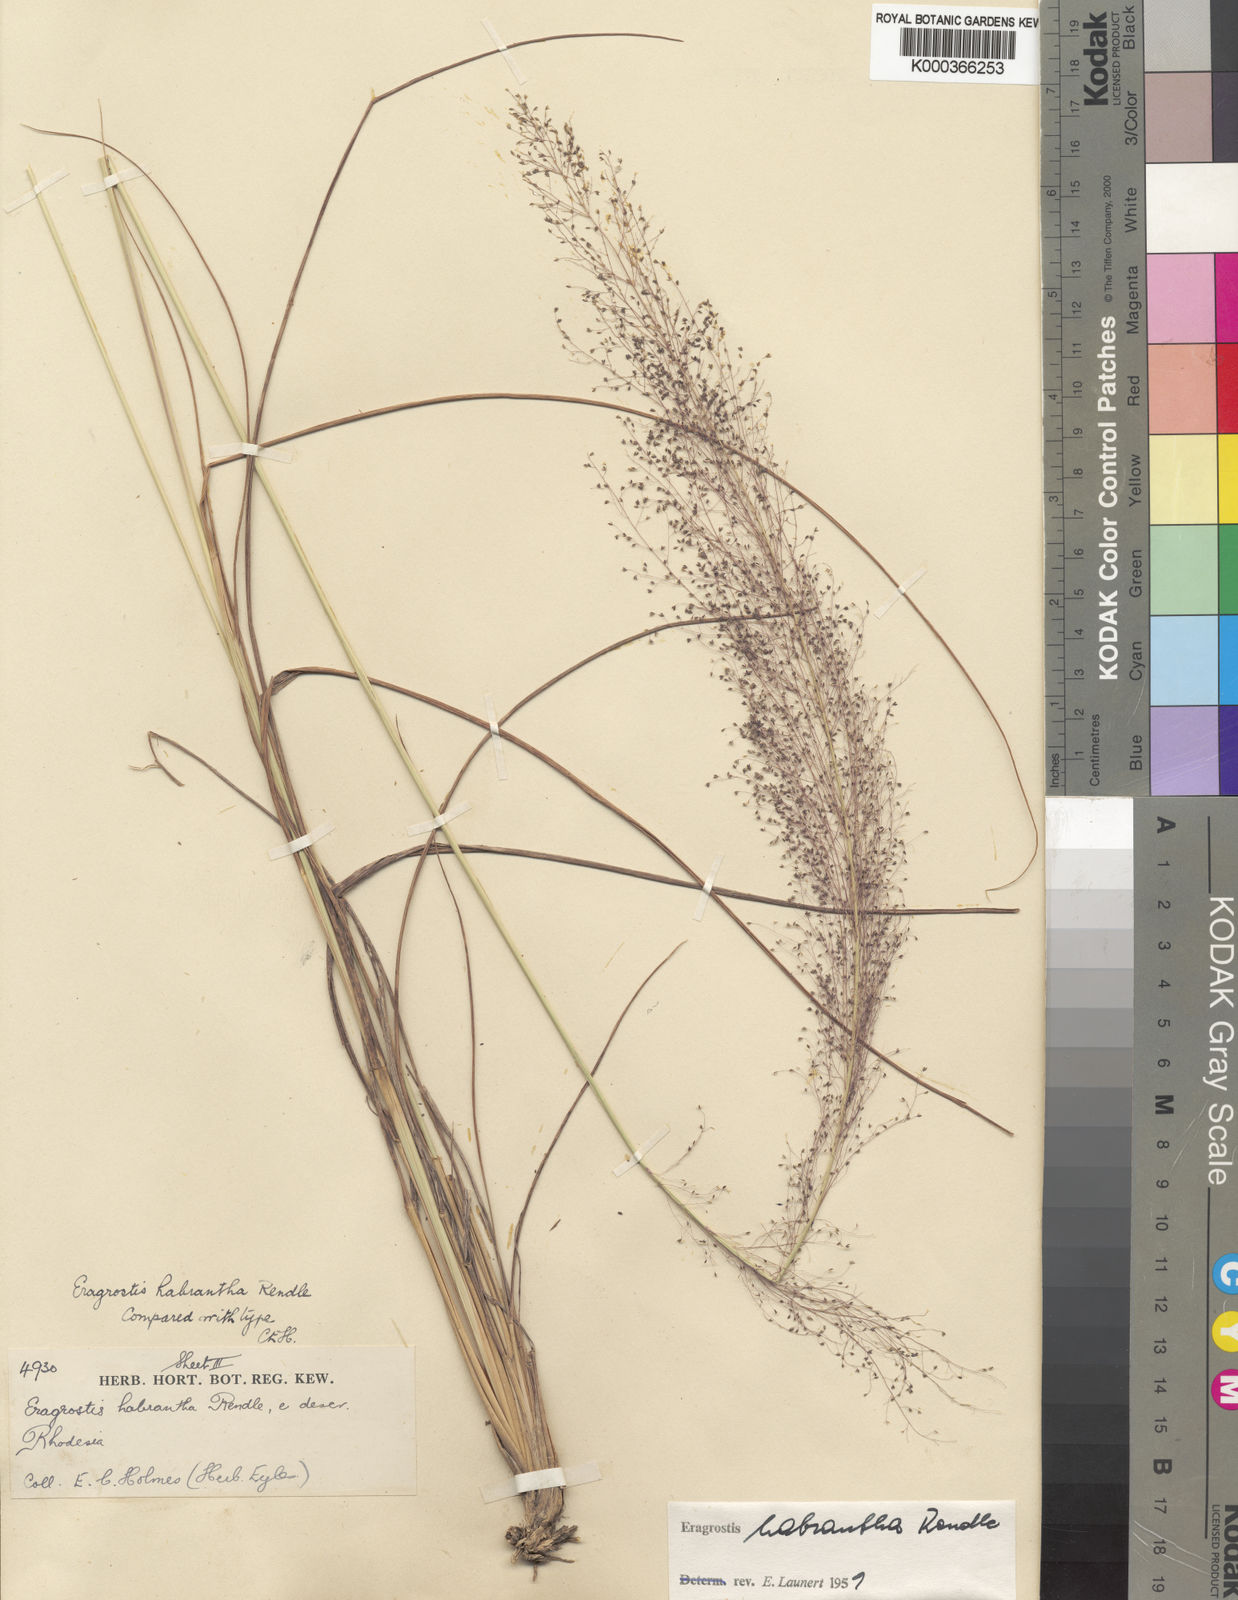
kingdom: Plantae
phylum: Tracheophyta
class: Liliopsida
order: Poales
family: Poaceae
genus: Eragrostis
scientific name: Eragrostis habrantha
